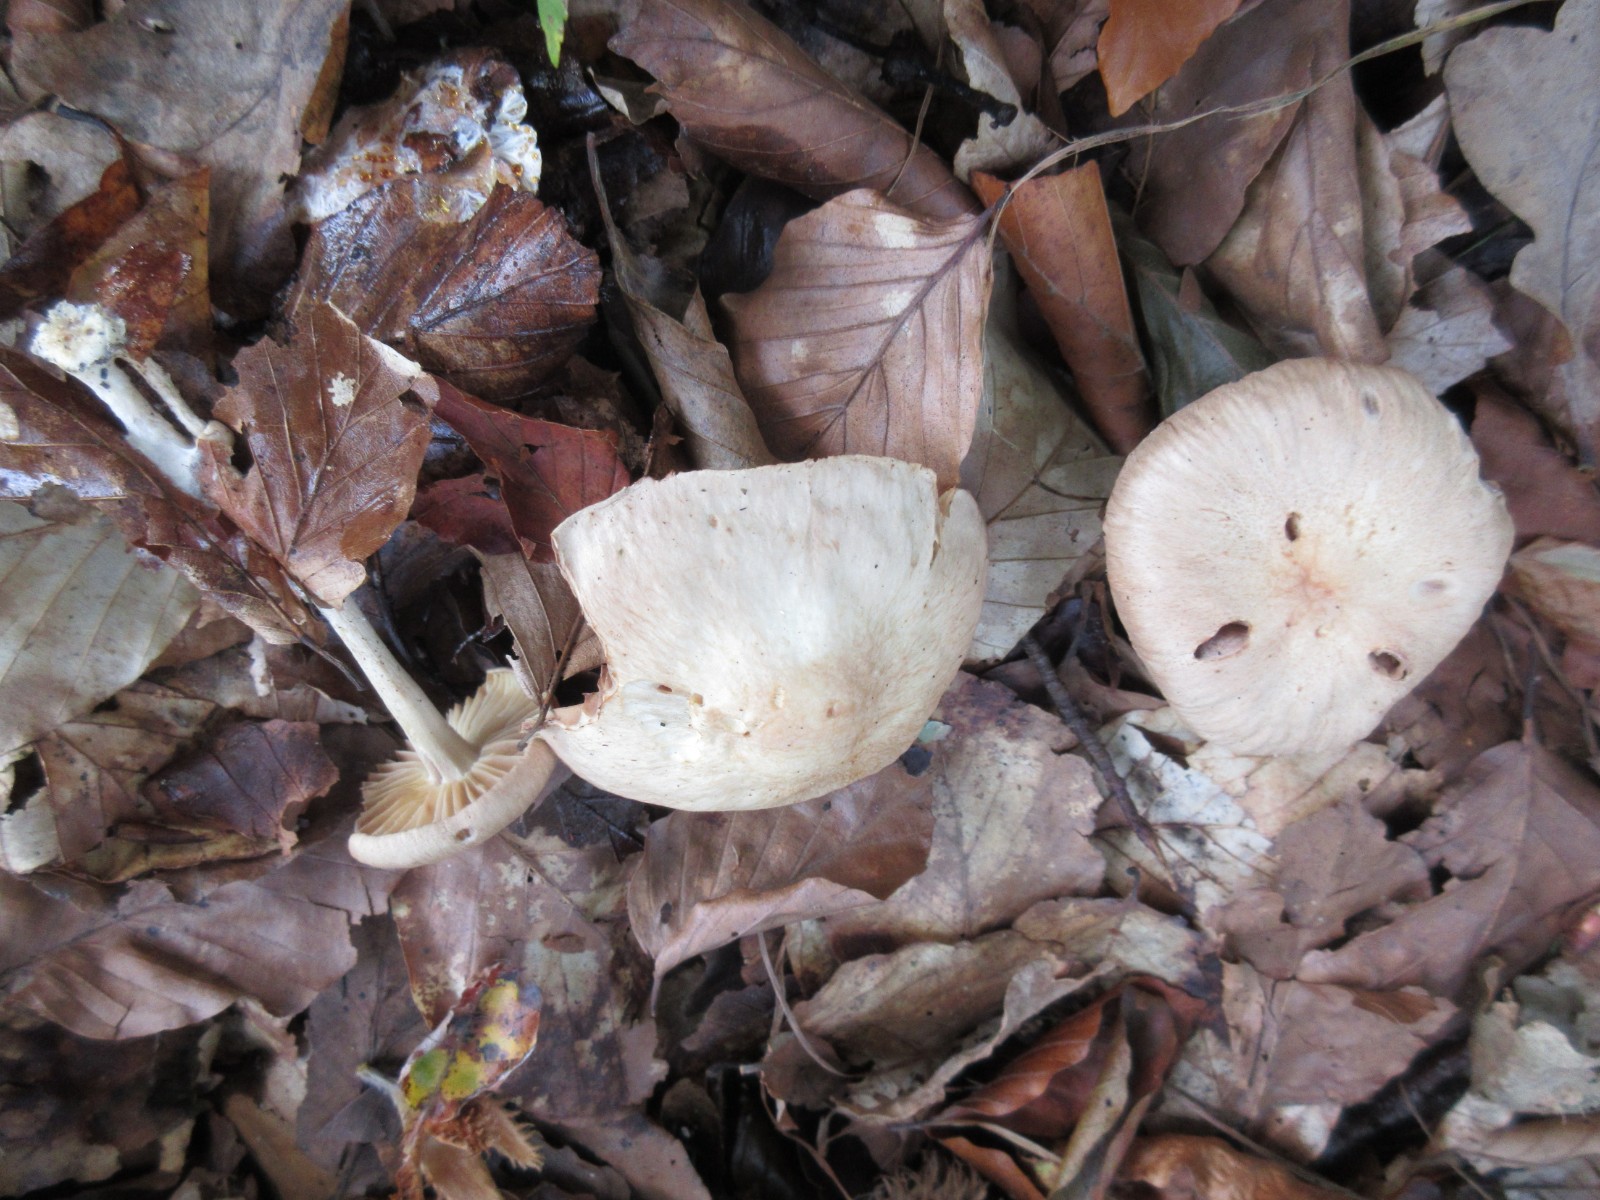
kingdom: Fungi
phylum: Basidiomycota
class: Agaricomycetes
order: Agaricales
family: Omphalotaceae
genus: Collybiopsis
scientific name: Collybiopsis peronata
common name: bestøvlet fladhat
